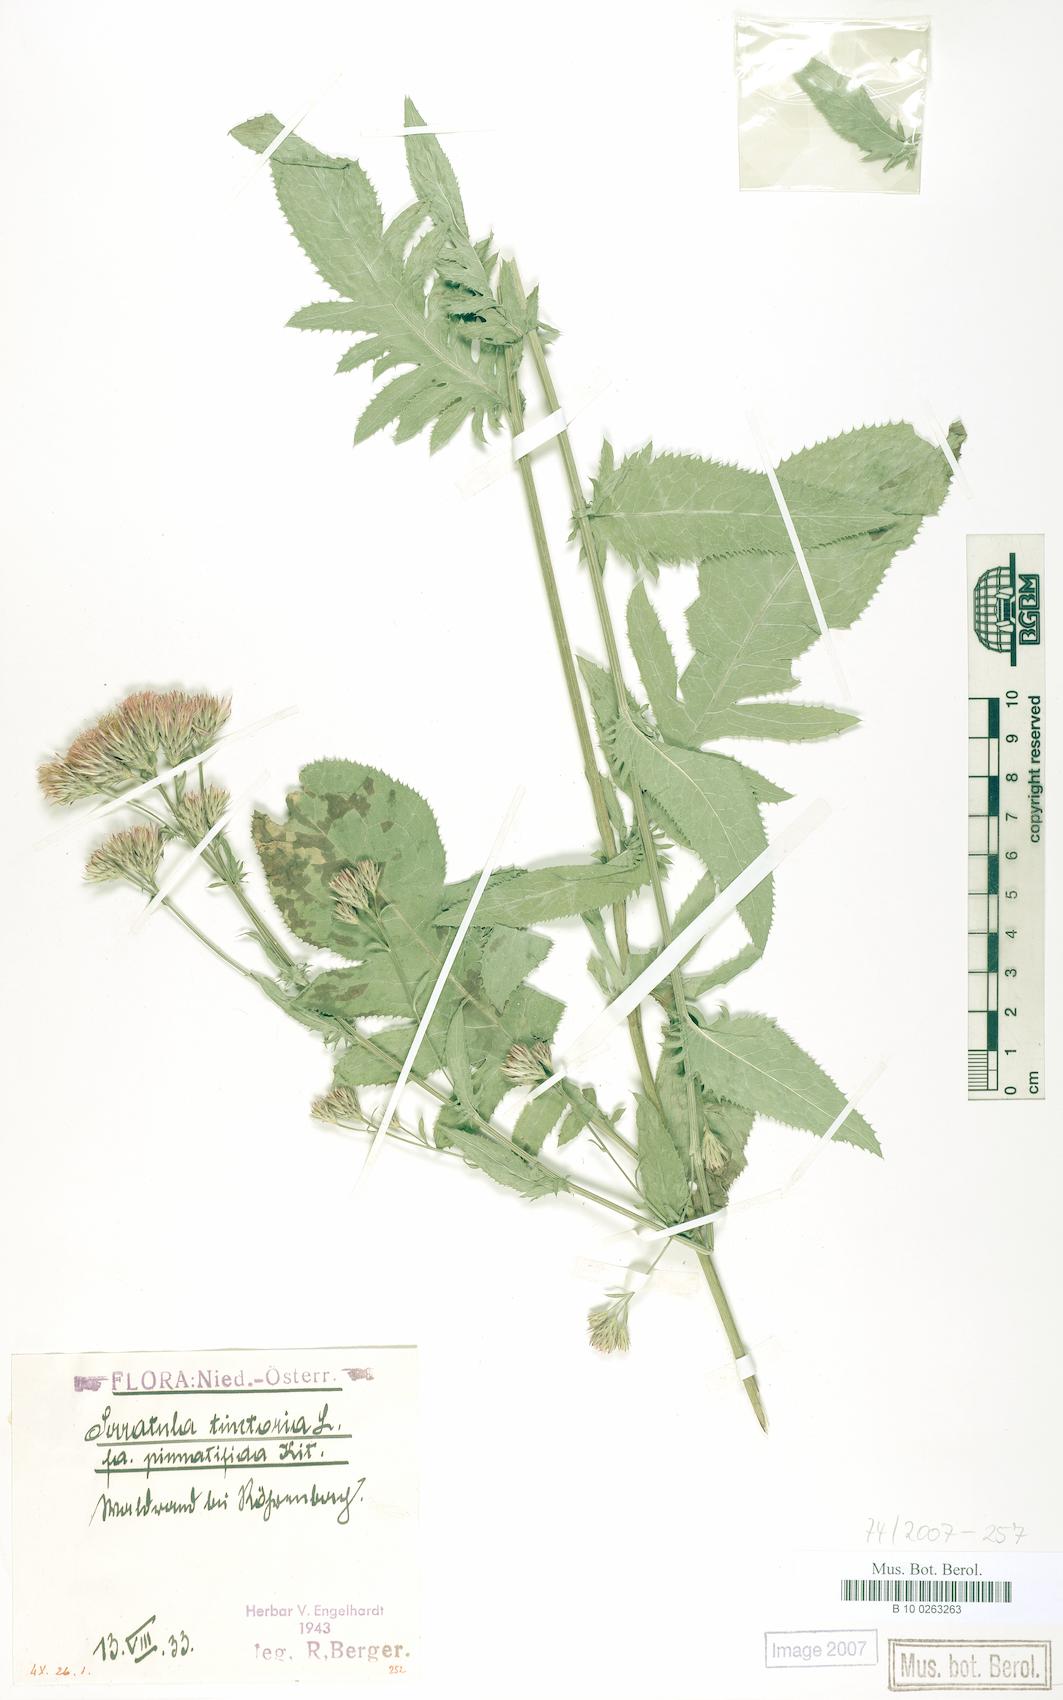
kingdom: Plantae
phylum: Tracheophyta
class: Magnoliopsida
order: Asterales
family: Asteraceae
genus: Serratula
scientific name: Serratula tinctoria
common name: Saw-wort
